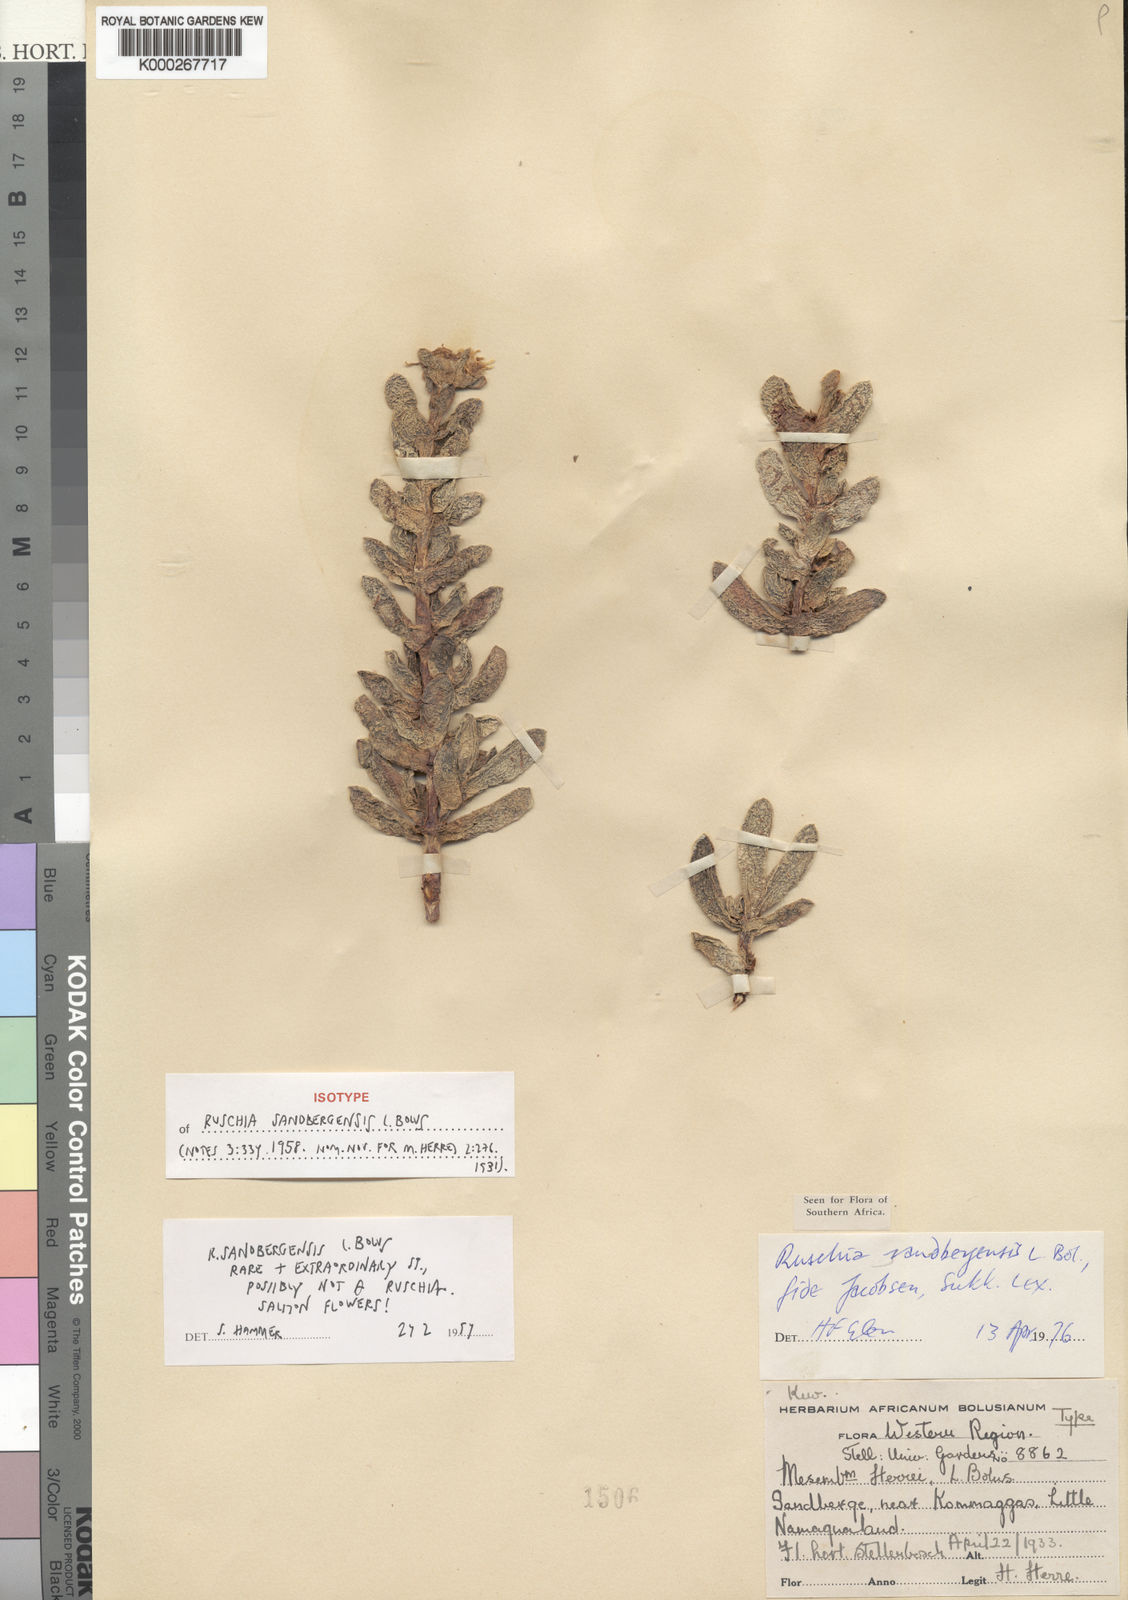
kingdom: Plantae
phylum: Tracheophyta
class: Magnoliopsida
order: Caryophyllales
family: Aizoaceae
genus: Ruschia
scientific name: Ruschia sandbergensis
